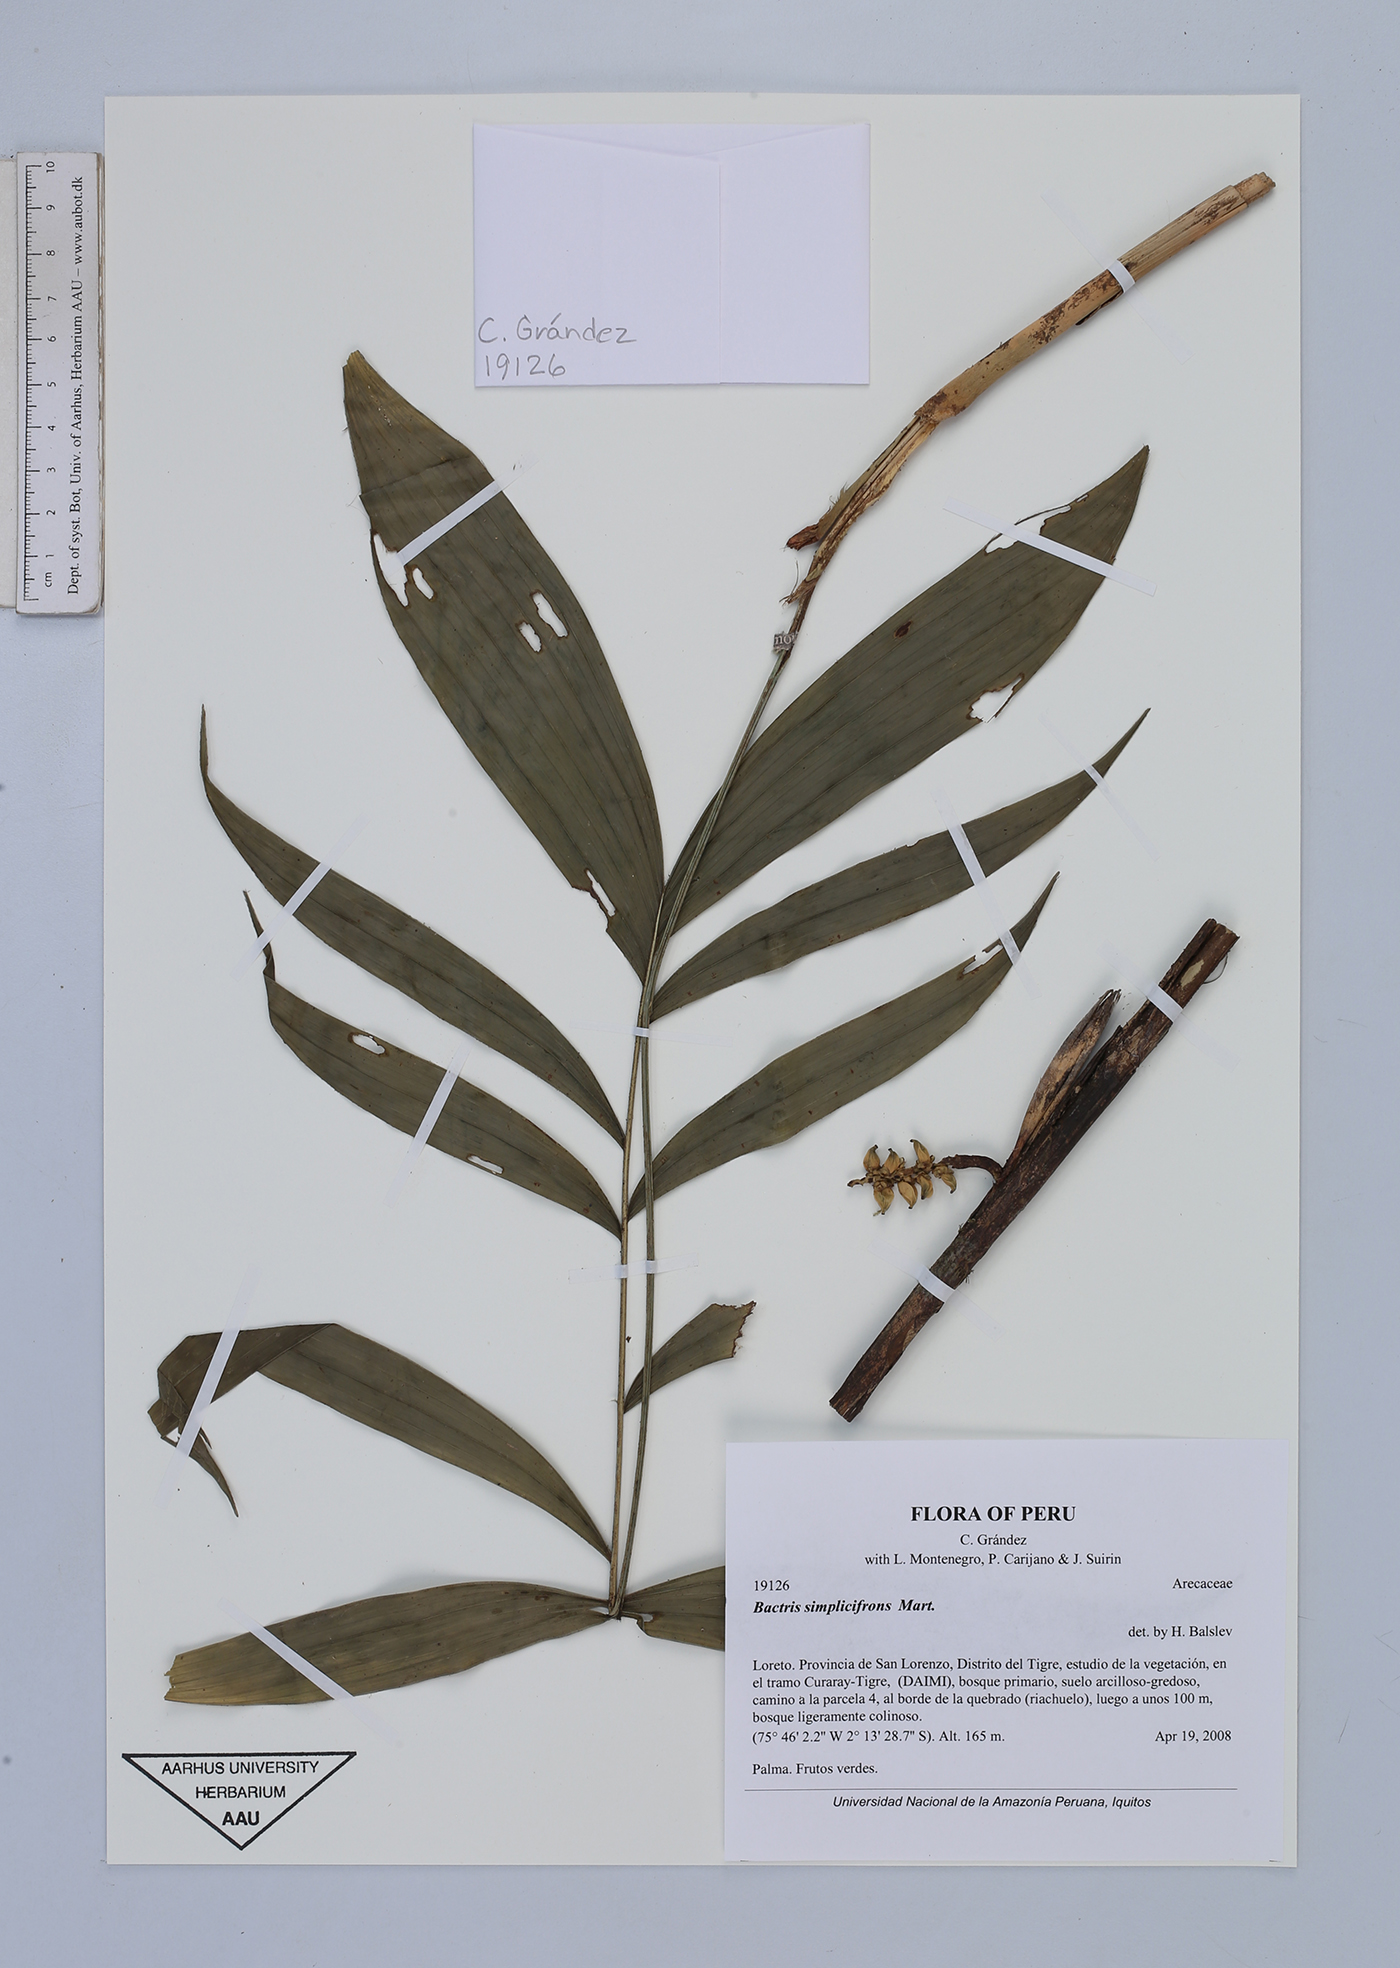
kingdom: Plantae
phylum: Tracheophyta
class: Liliopsida
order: Arecales
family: Arecaceae
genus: Bactris
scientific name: Bactris simplicifrons
